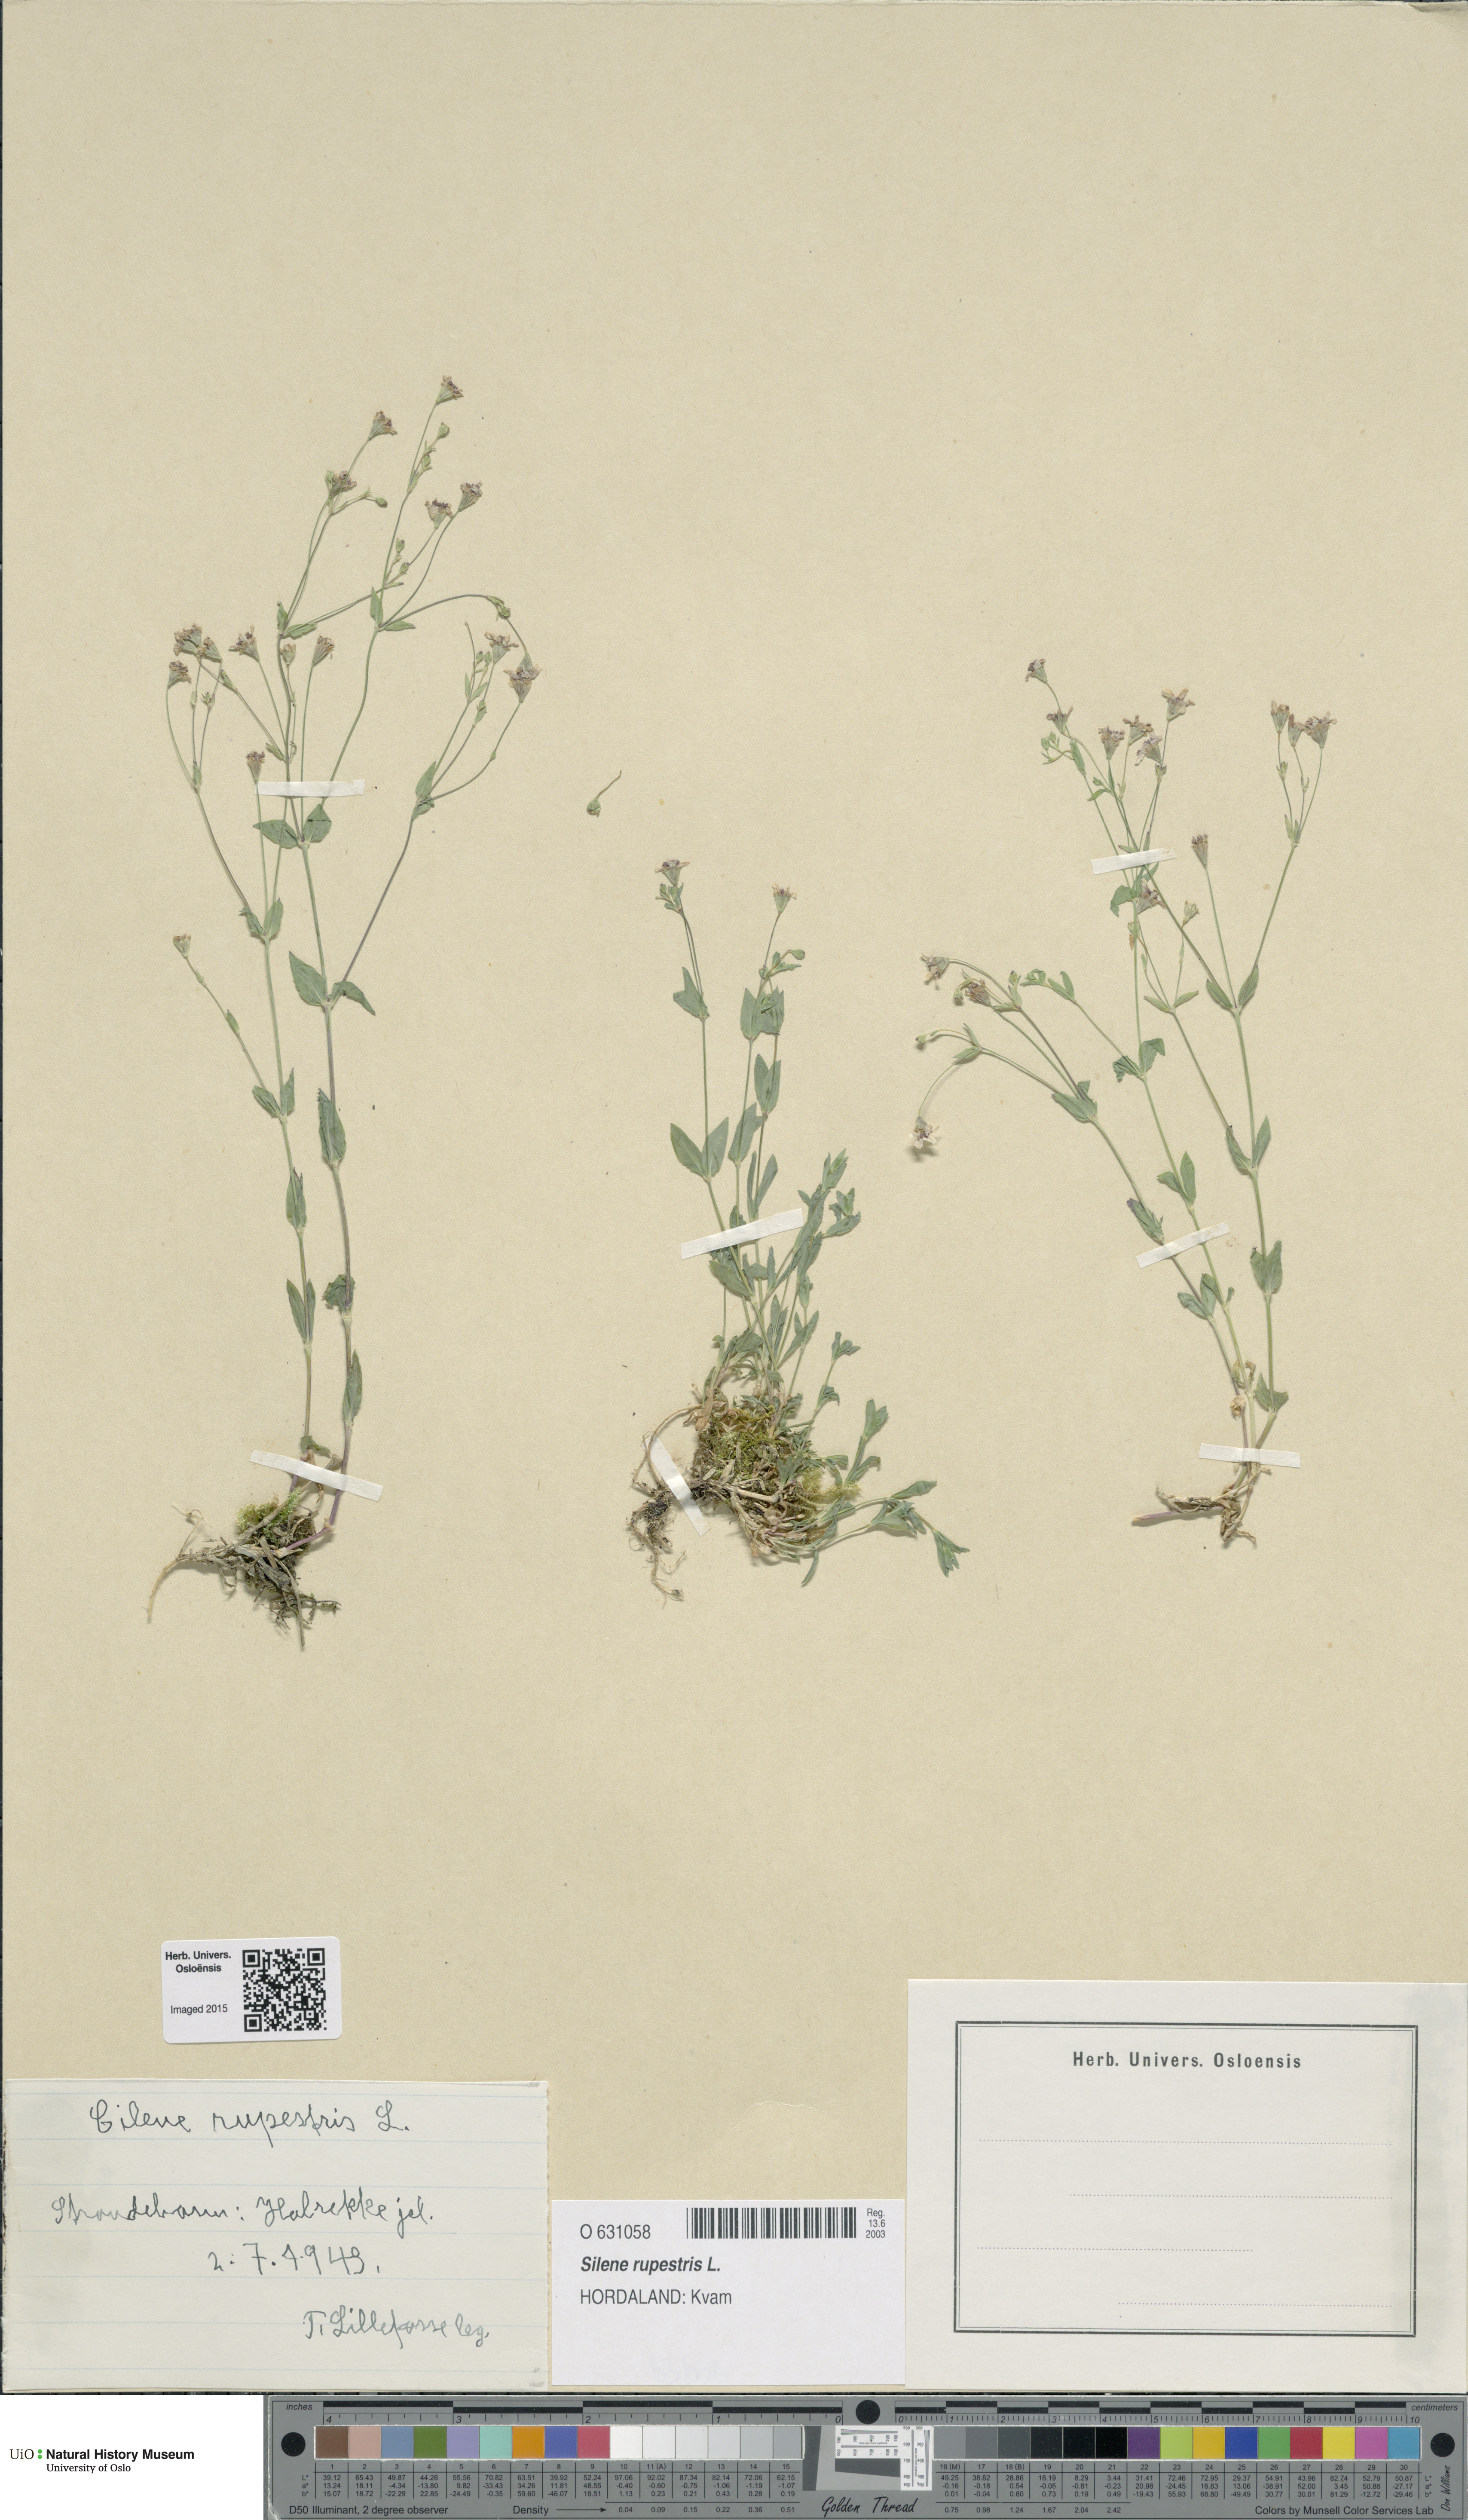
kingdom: Plantae
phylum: Tracheophyta
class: Magnoliopsida
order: Caryophyllales
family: Caryophyllaceae
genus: Atocion
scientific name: Atocion rupestre
